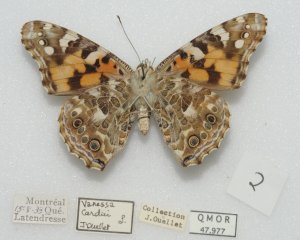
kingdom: Animalia
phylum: Arthropoda
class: Insecta
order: Lepidoptera
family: Nymphalidae
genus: Vanessa
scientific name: Vanessa cardui
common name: Painted Lady
